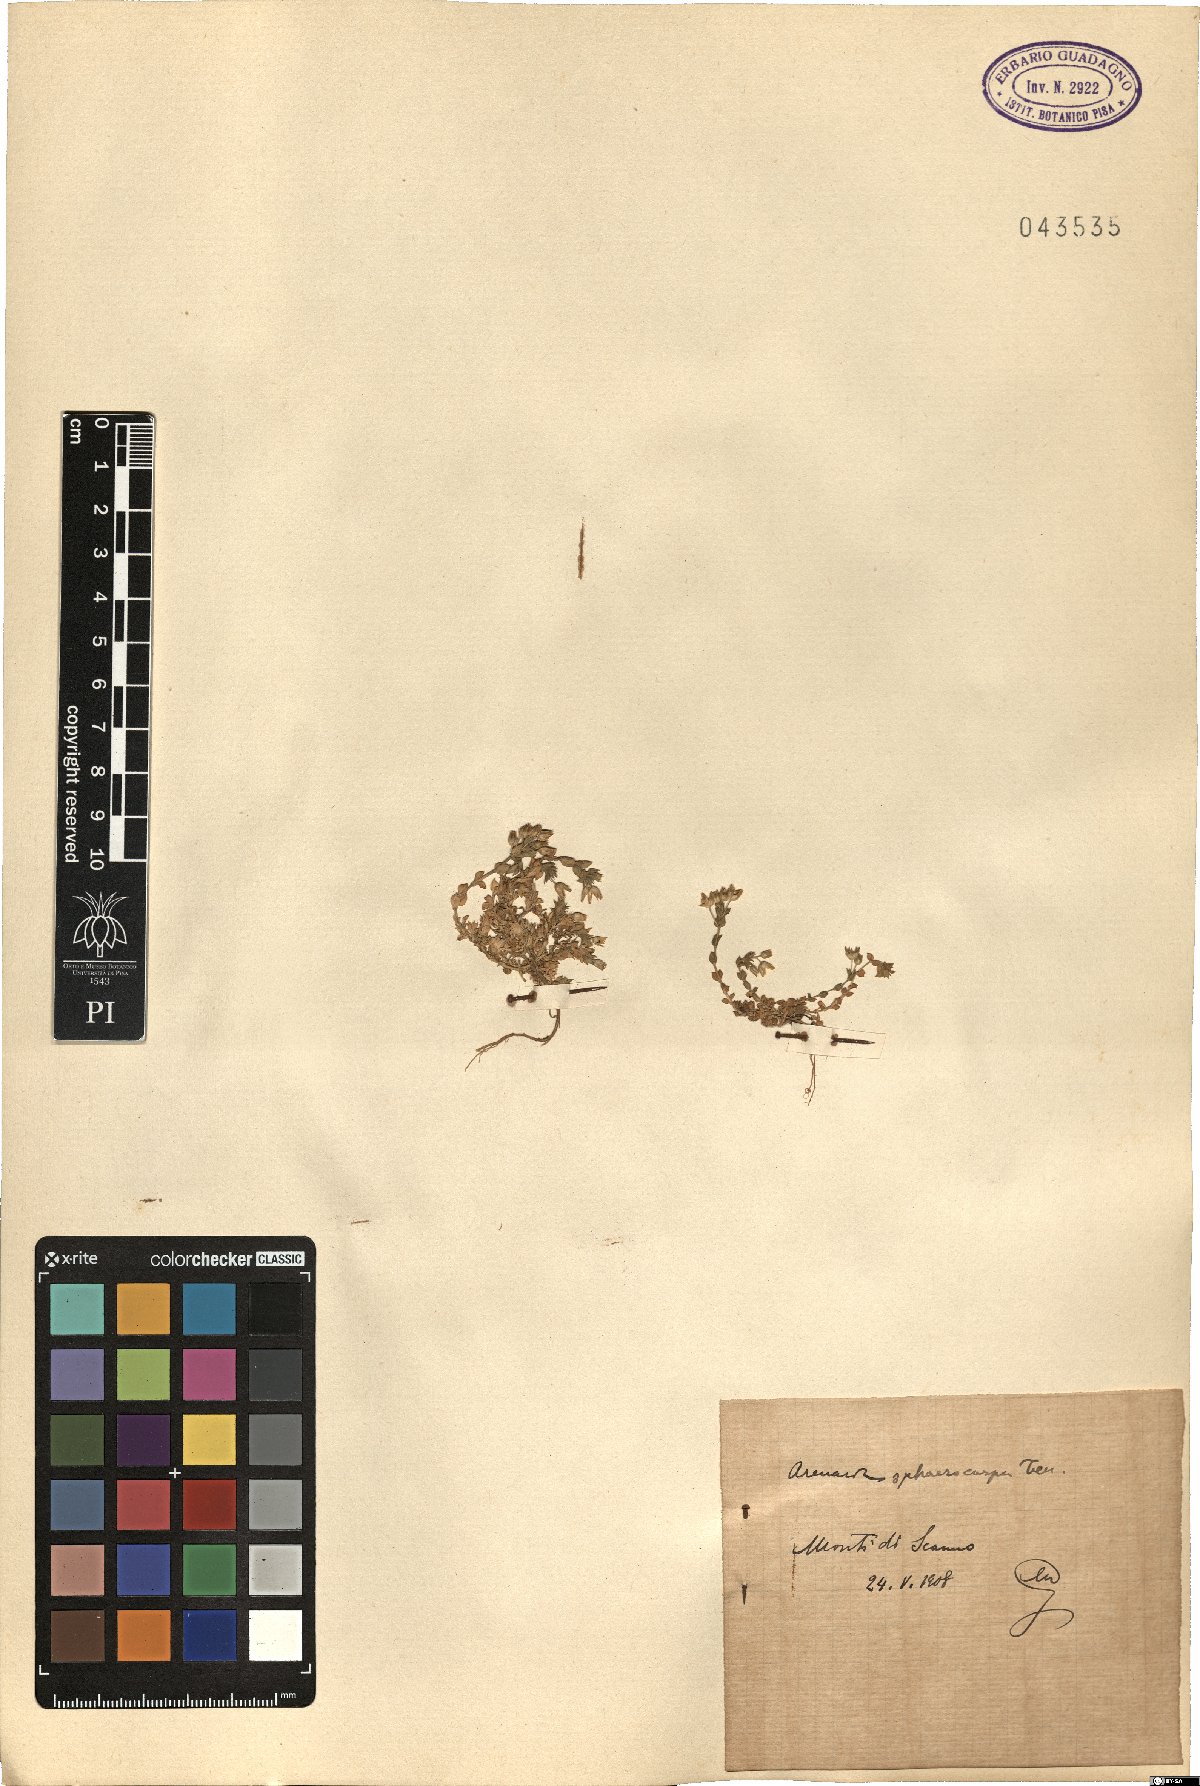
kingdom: Plantae
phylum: Tracheophyta
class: Magnoliopsida
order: Caryophyllales
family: Caryophyllaceae
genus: Arenaria
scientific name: Arenaria serpyllifolia
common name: Thyme-leaved sandwort
